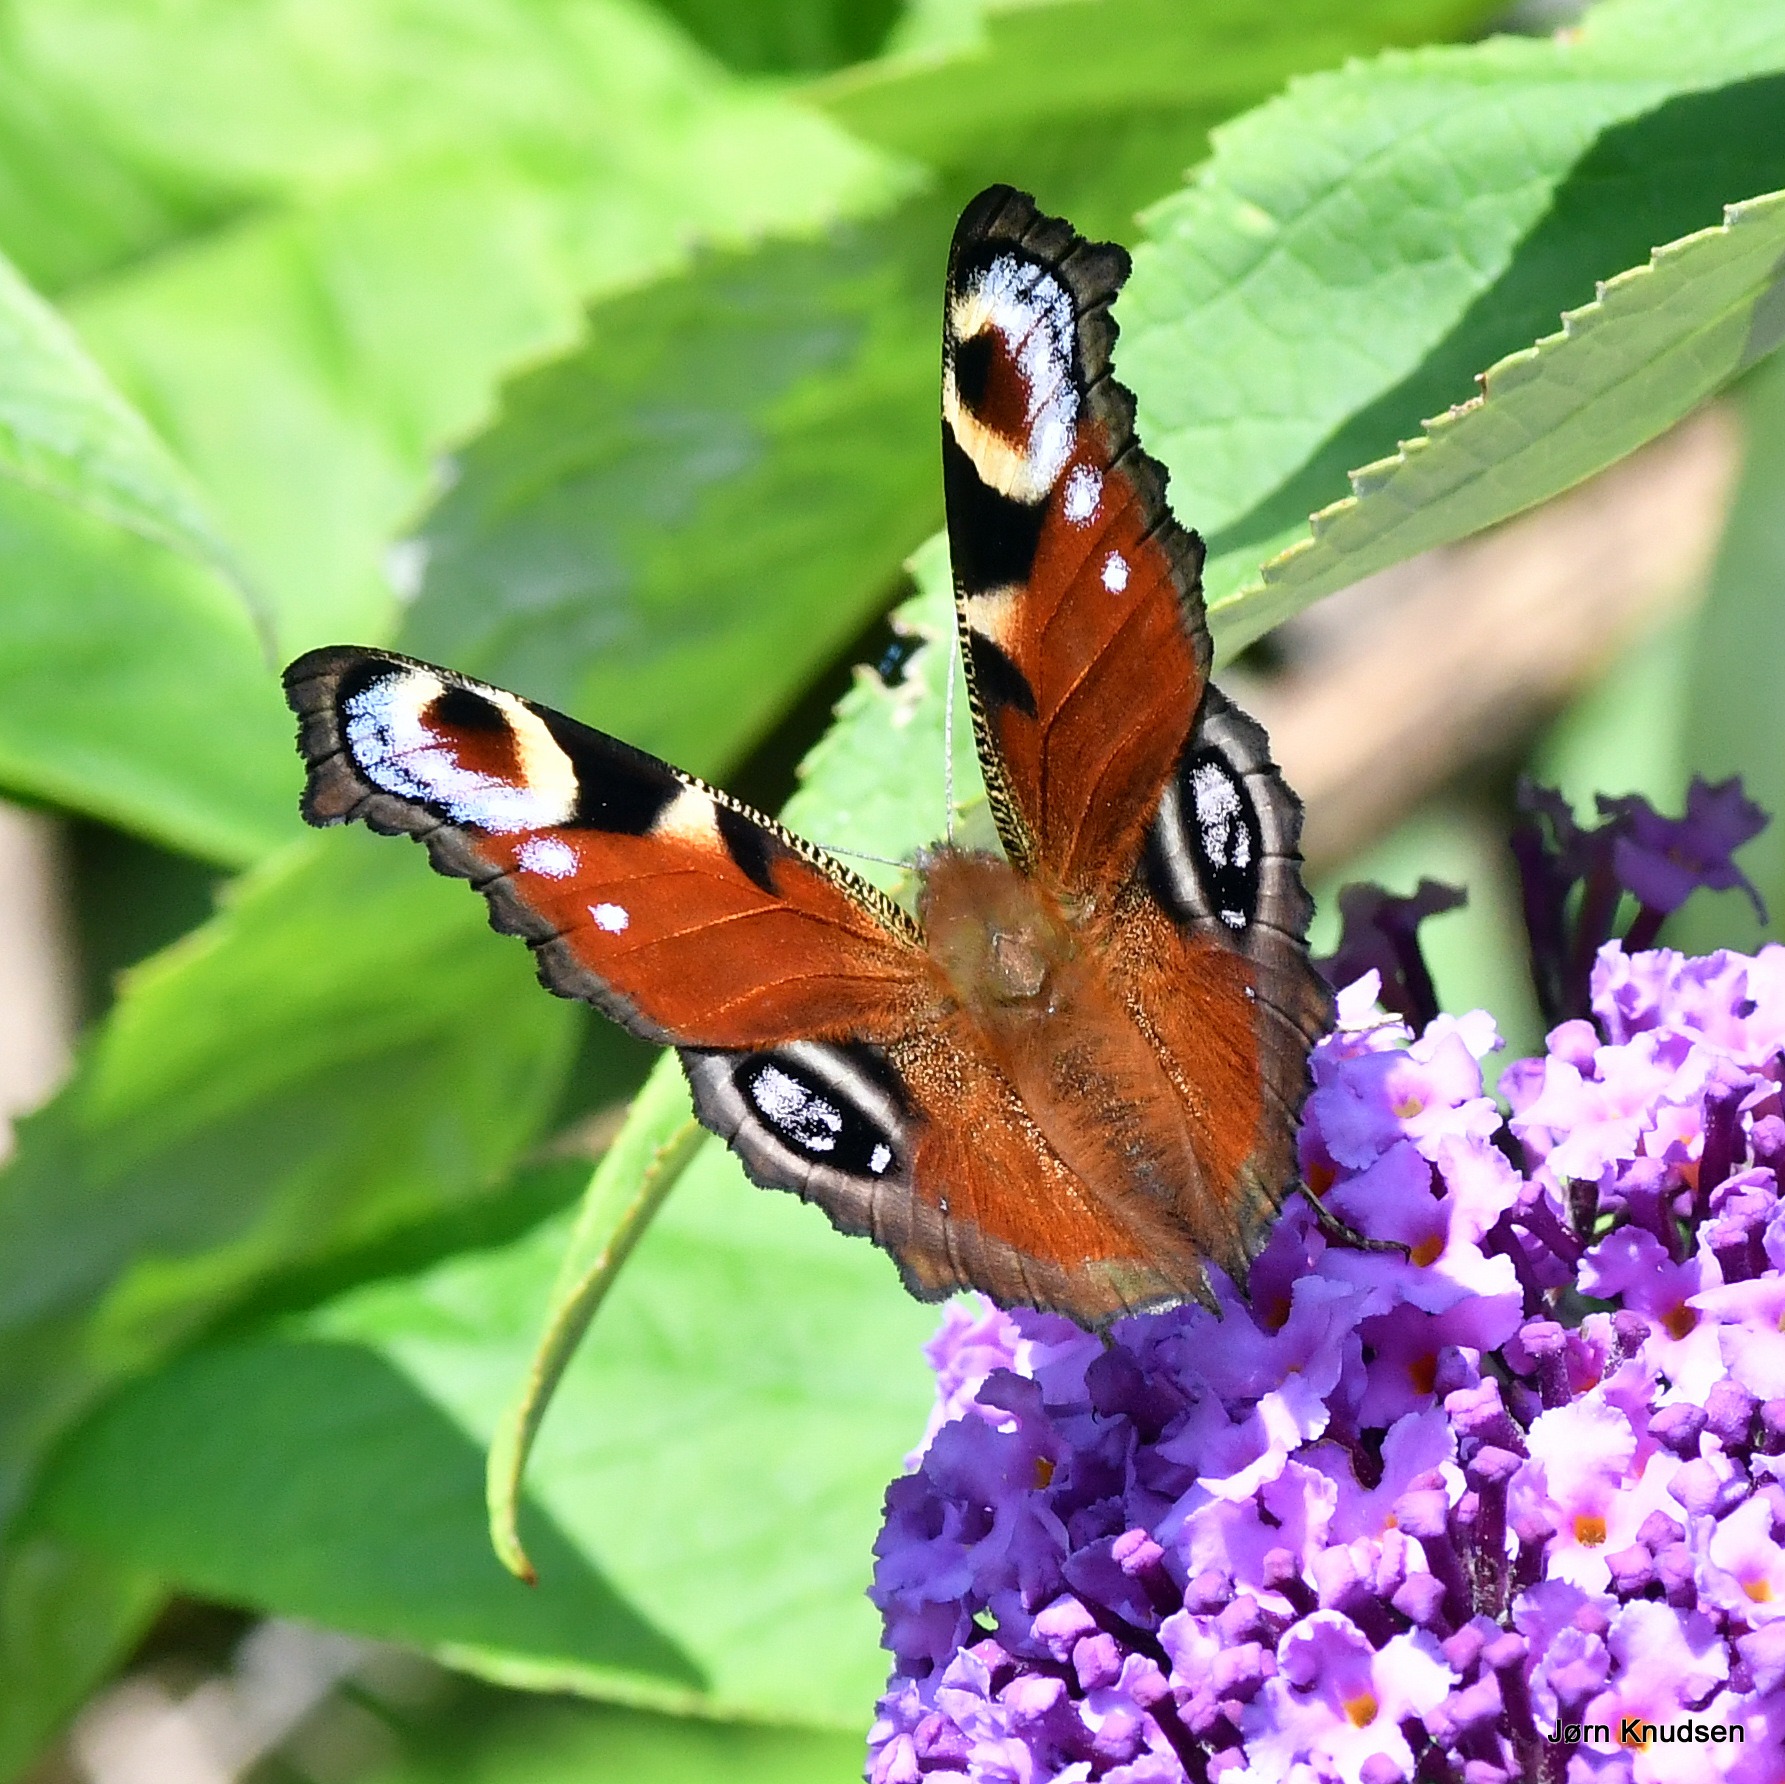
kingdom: Animalia
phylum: Arthropoda
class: Insecta
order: Lepidoptera
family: Nymphalidae
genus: Aglais
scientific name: Aglais io
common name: Dagpåfugleøje
